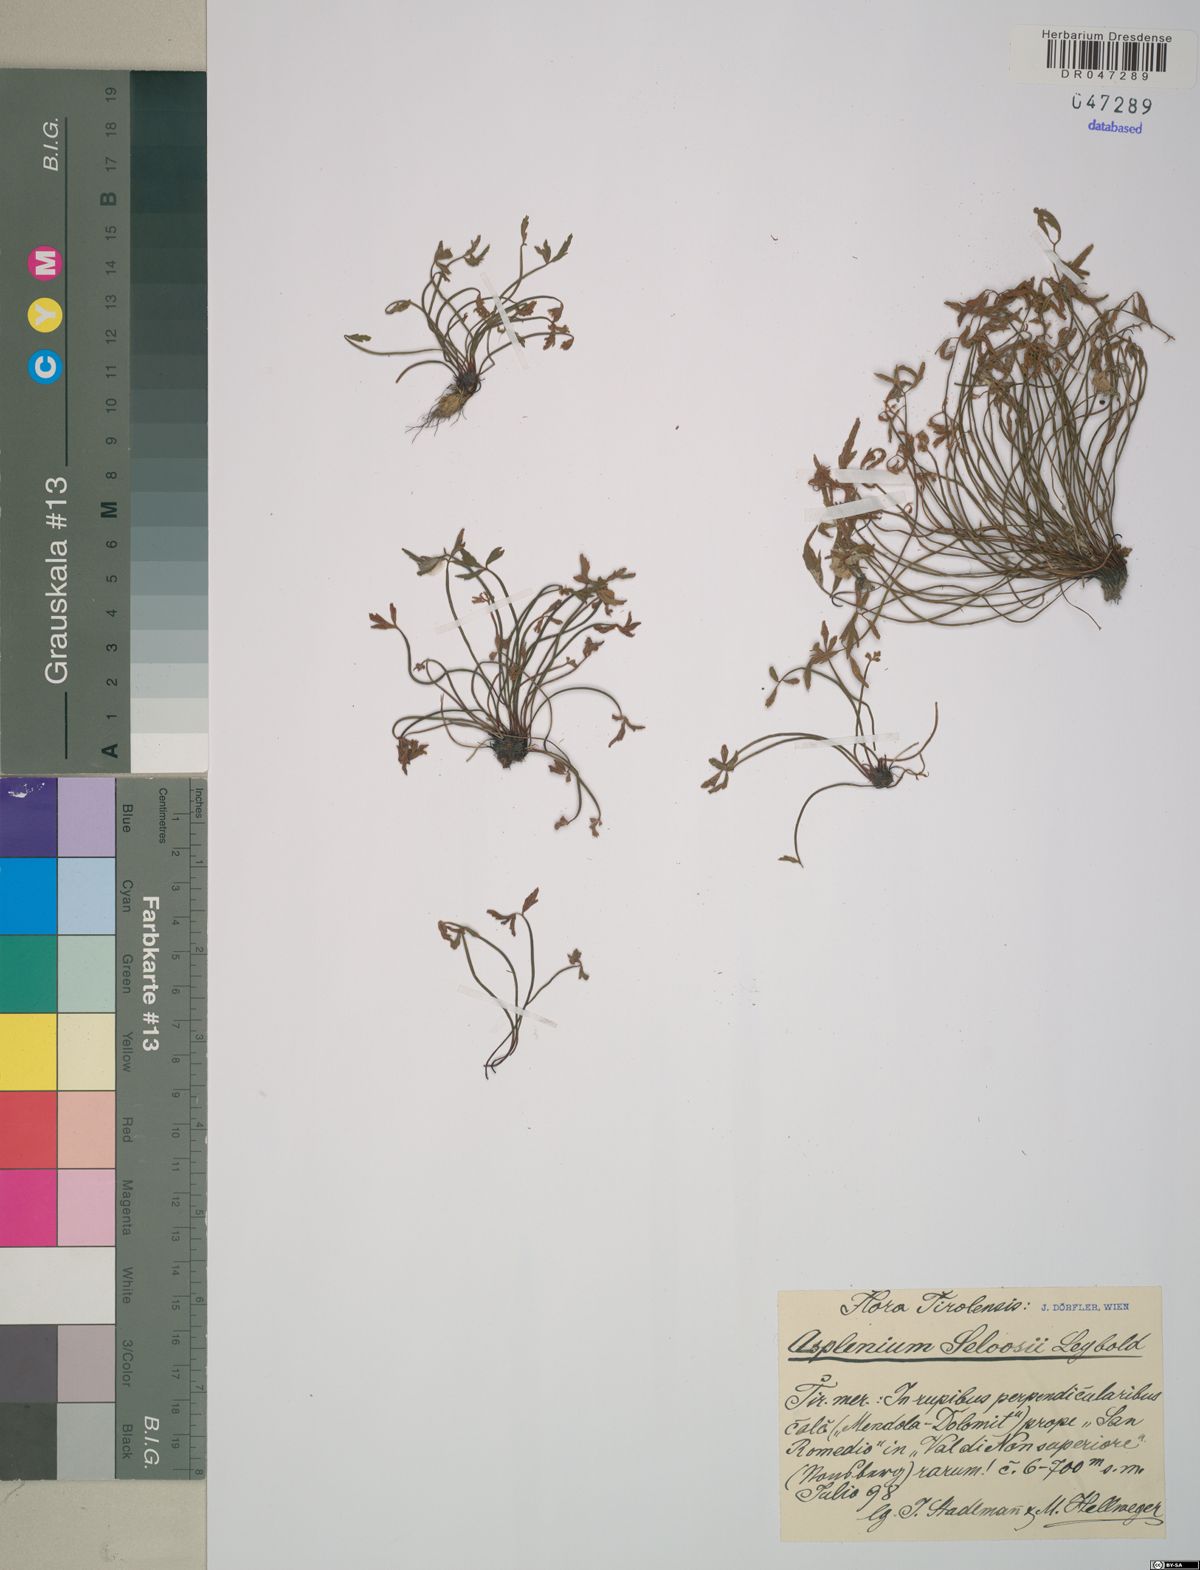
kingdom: Plantae
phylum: Tracheophyta
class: Polypodiopsida
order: Polypodiales
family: Aspleniaceae
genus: Asplenium
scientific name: Asplenium seelosii
